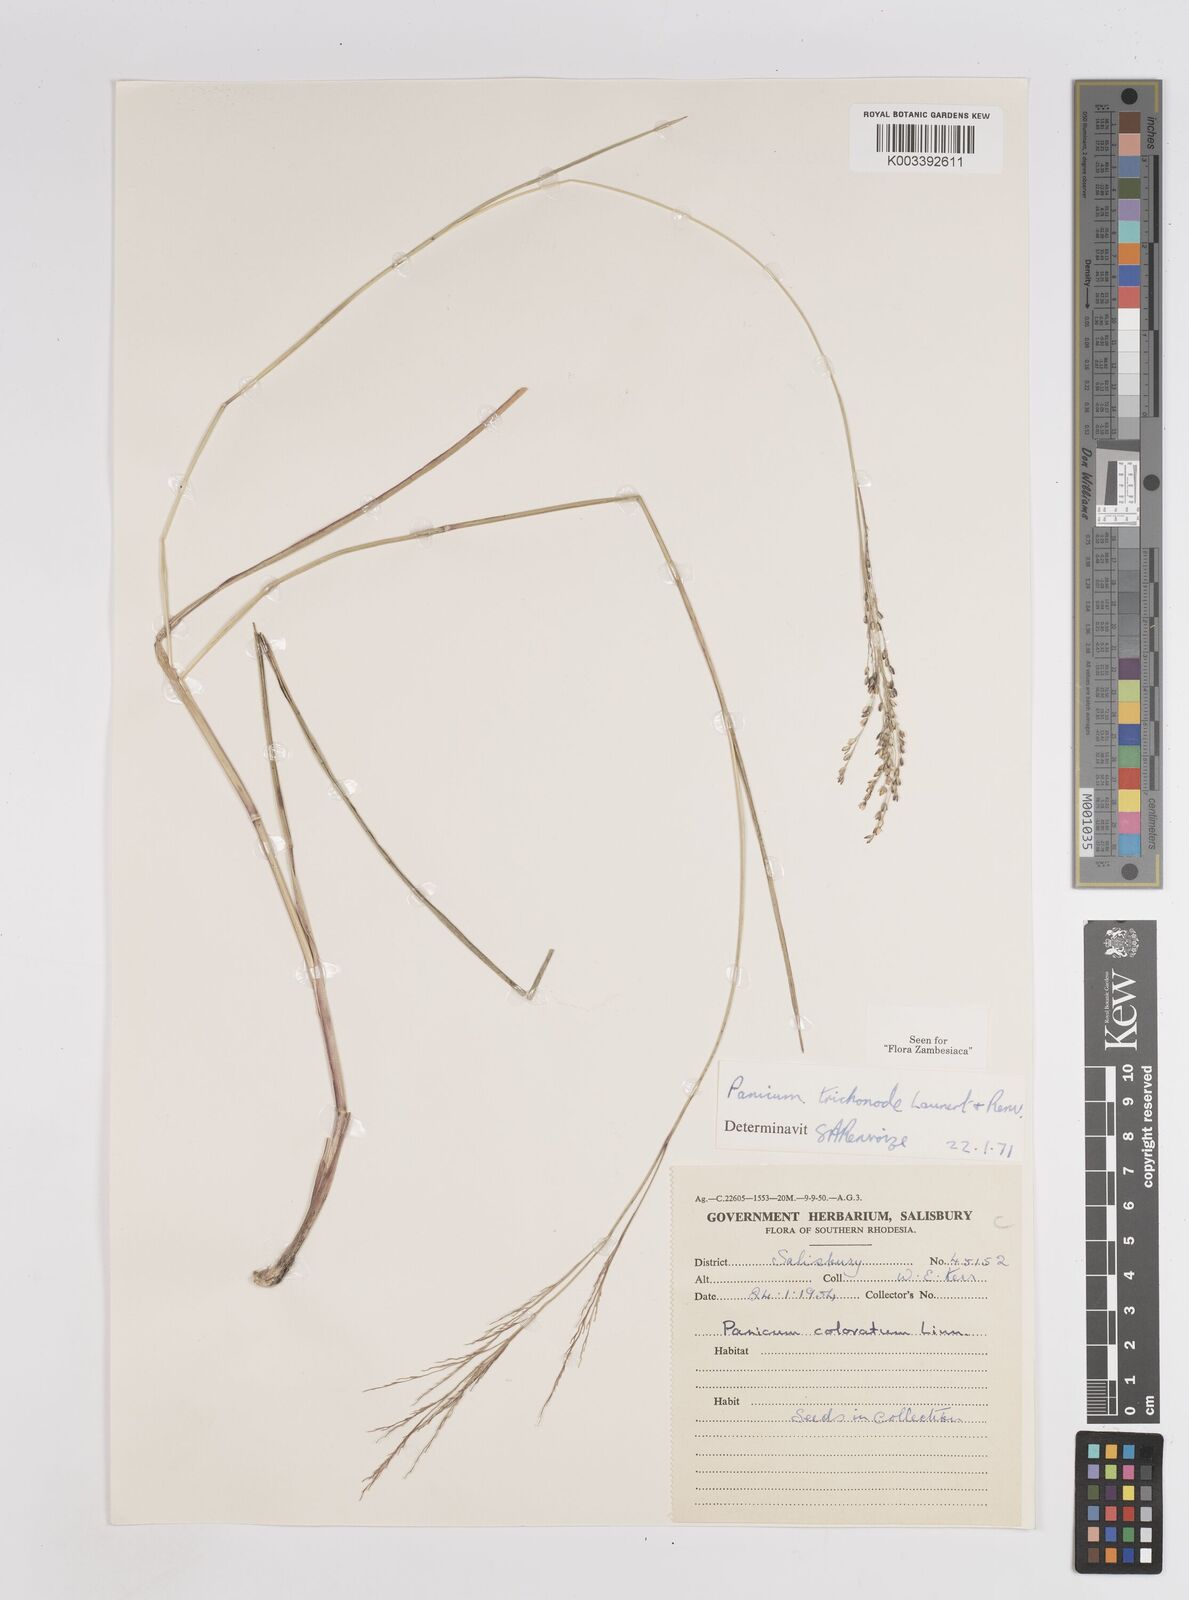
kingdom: Plantae
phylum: Tracheophyta
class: Liliopsida
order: Poales
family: Poaceae
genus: Panicum
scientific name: Panicum trichonode
